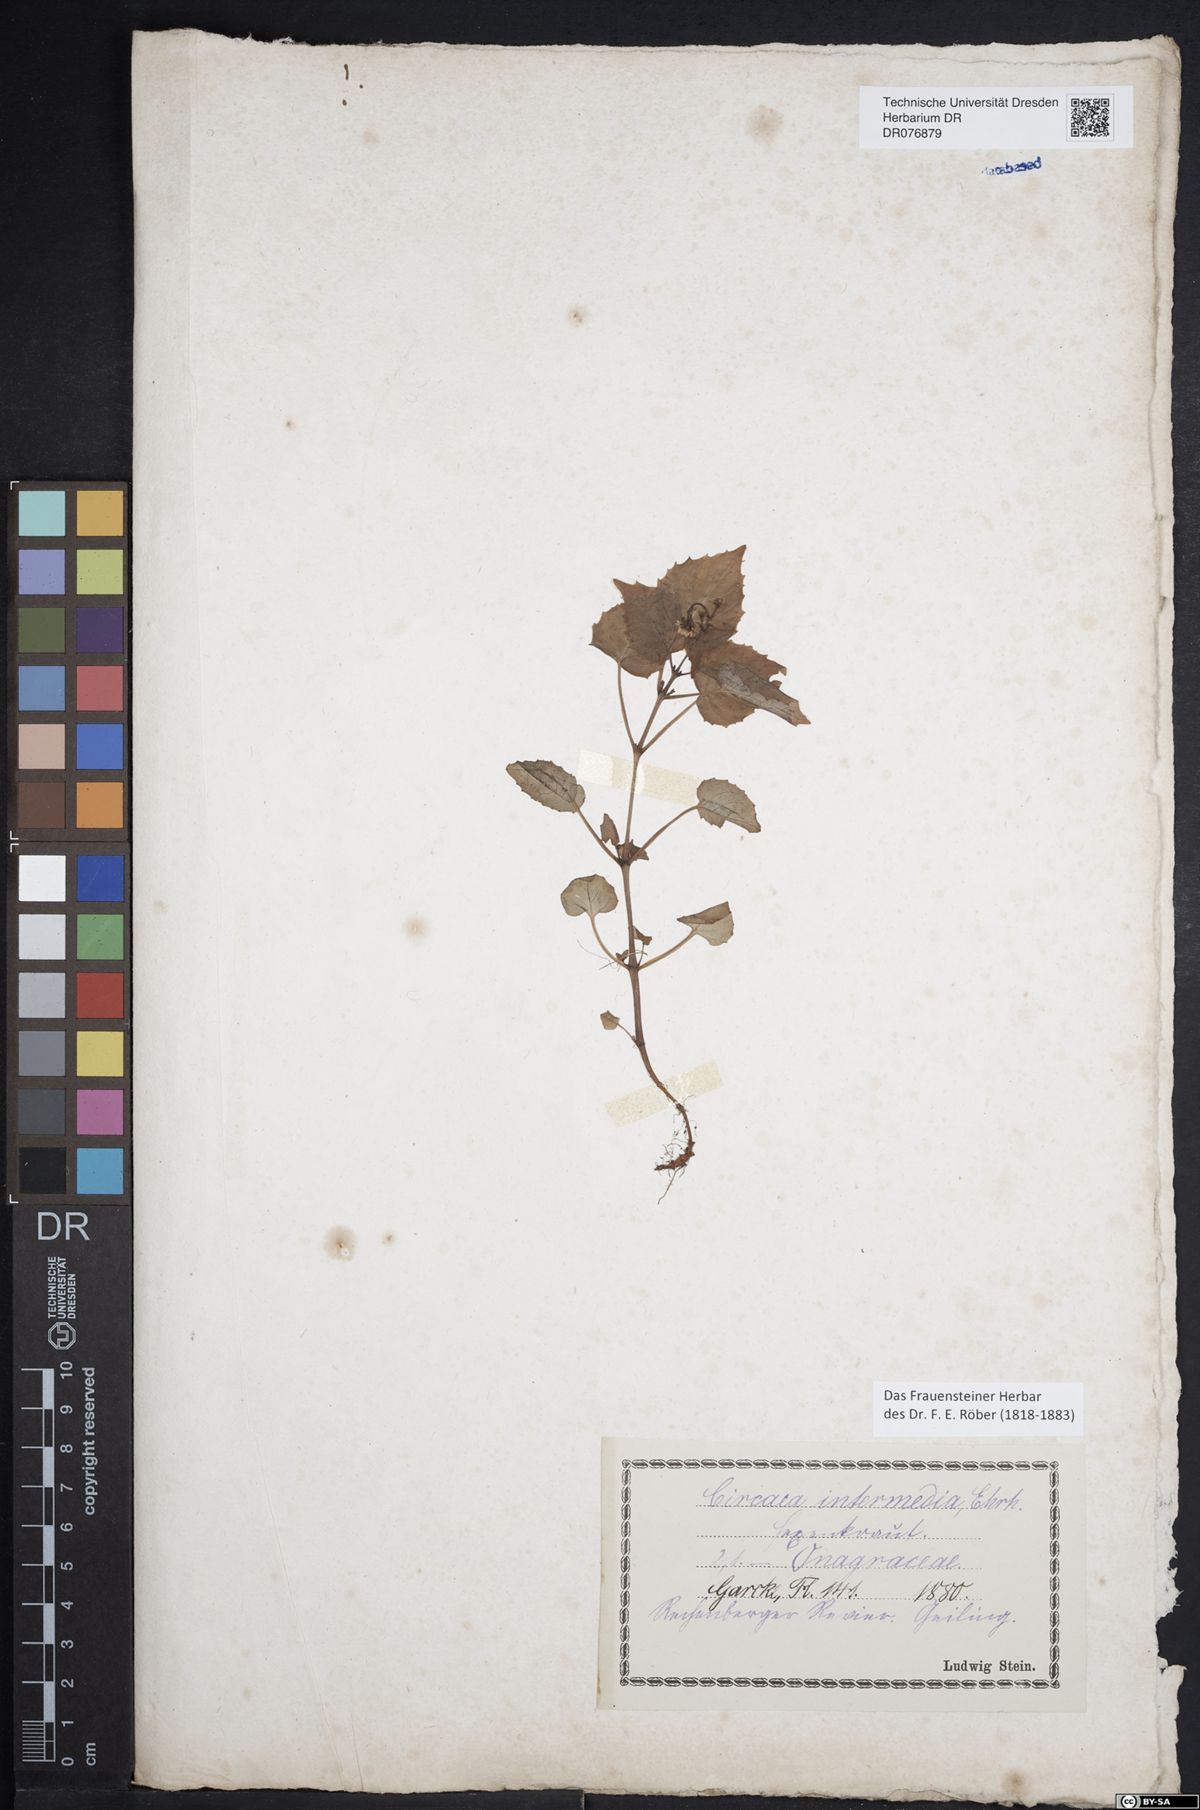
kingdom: Plantae
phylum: Tracheophyta
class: Magnoliopsida
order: Myrtales
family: Onagraceae
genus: Circaea
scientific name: Circaea intermedia
